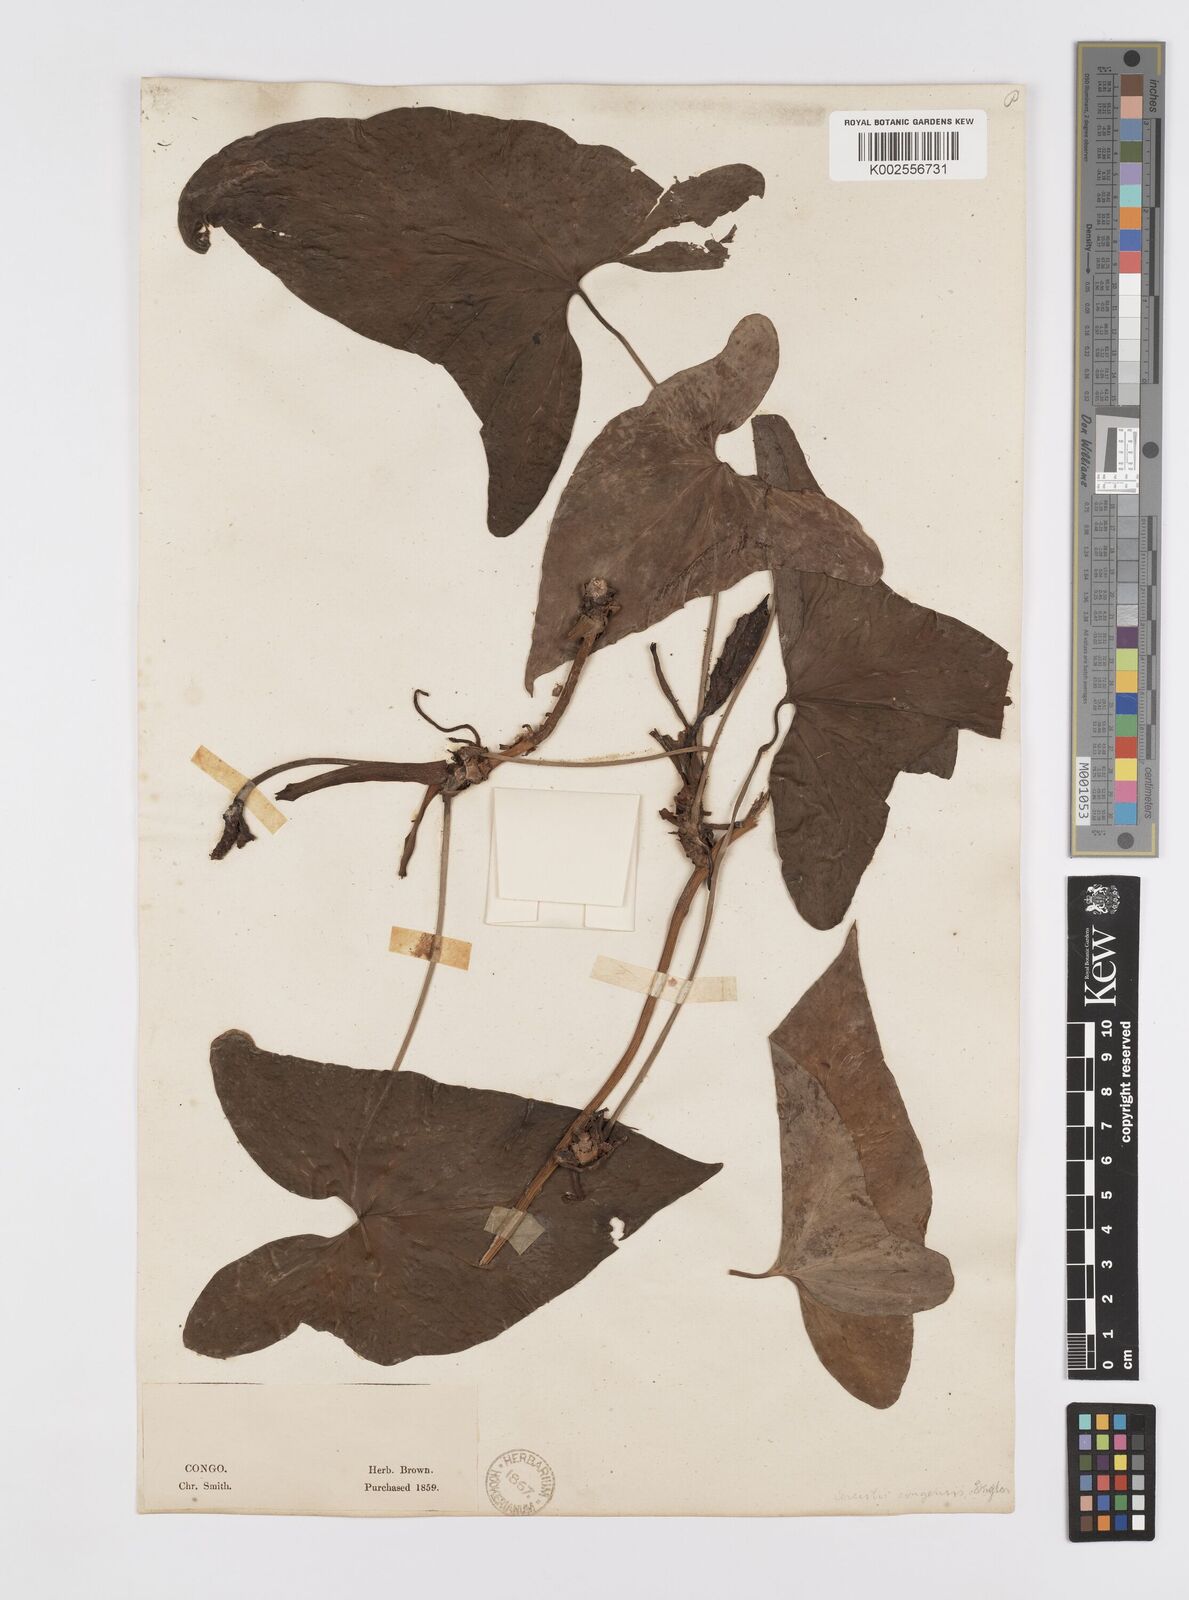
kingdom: Plantae
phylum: Tracheophyta
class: Liliopsida
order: Alismatales
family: Araceae
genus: Cercestis
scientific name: Cercestis congoensis
